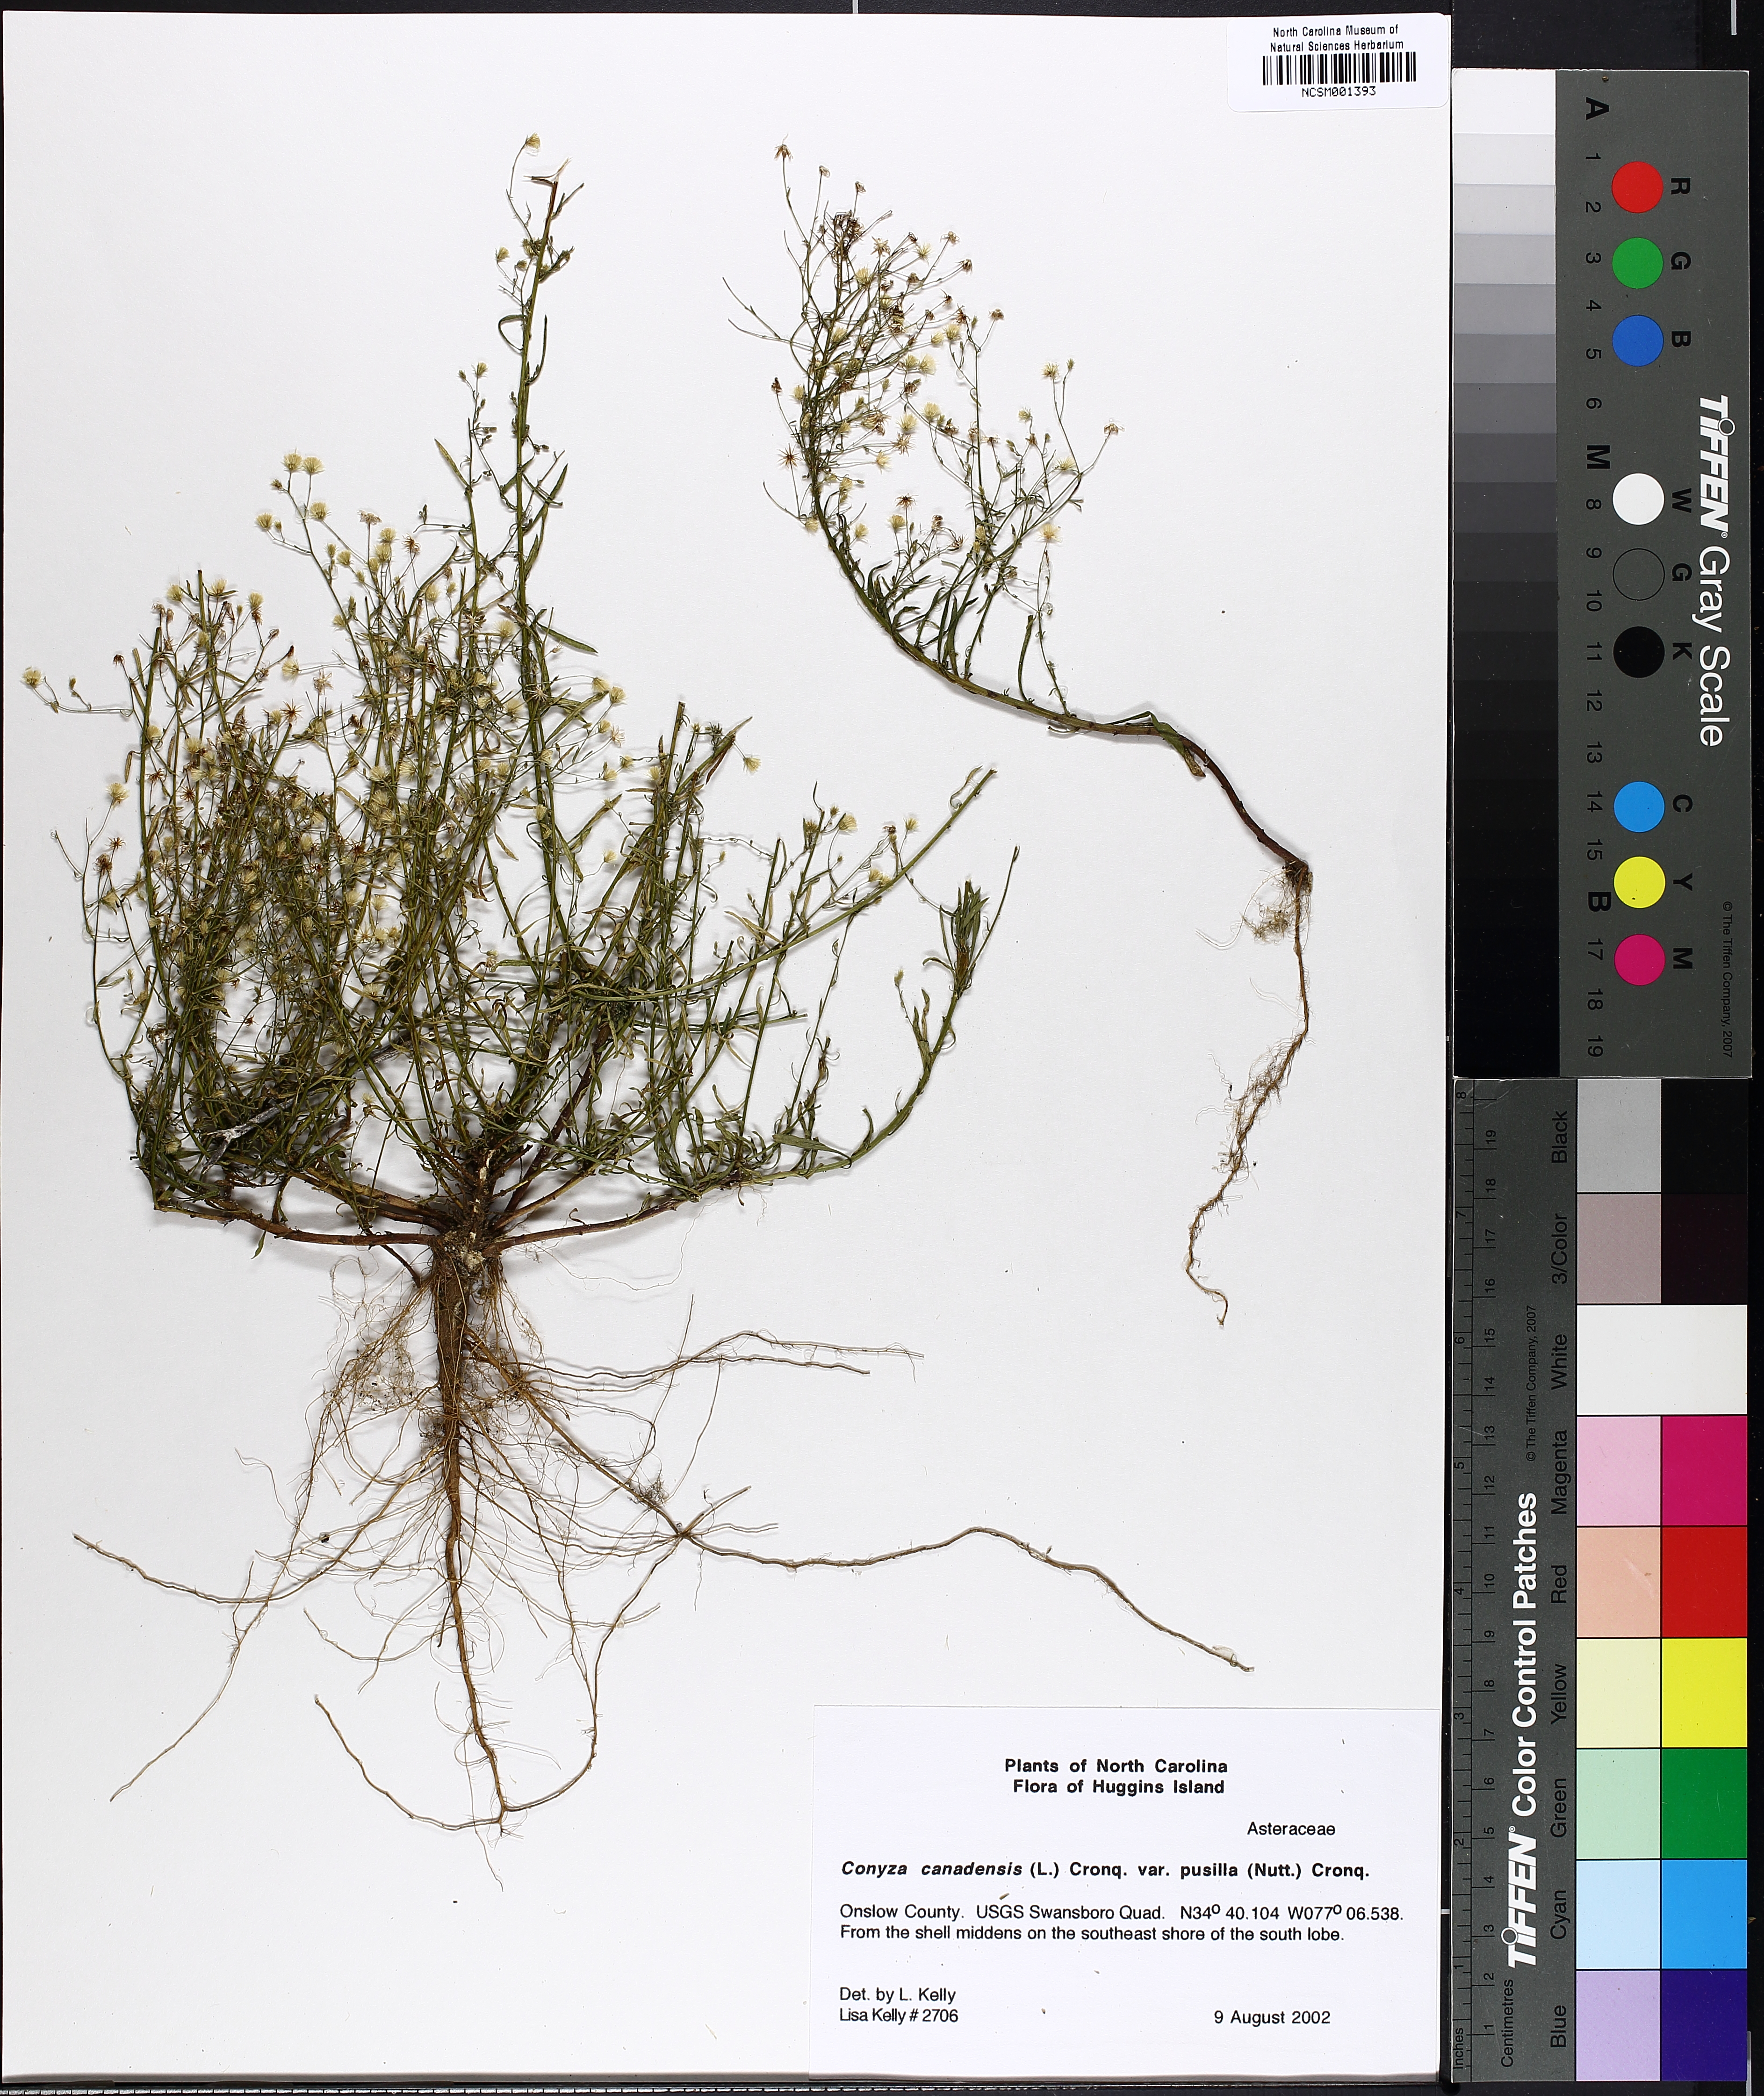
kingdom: Plantae
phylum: Tracheophyta
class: Magnoliopsida
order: Asterales
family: Asteraceae
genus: Erigeron
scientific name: Erigeron canadensis
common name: Canadian fleabane
